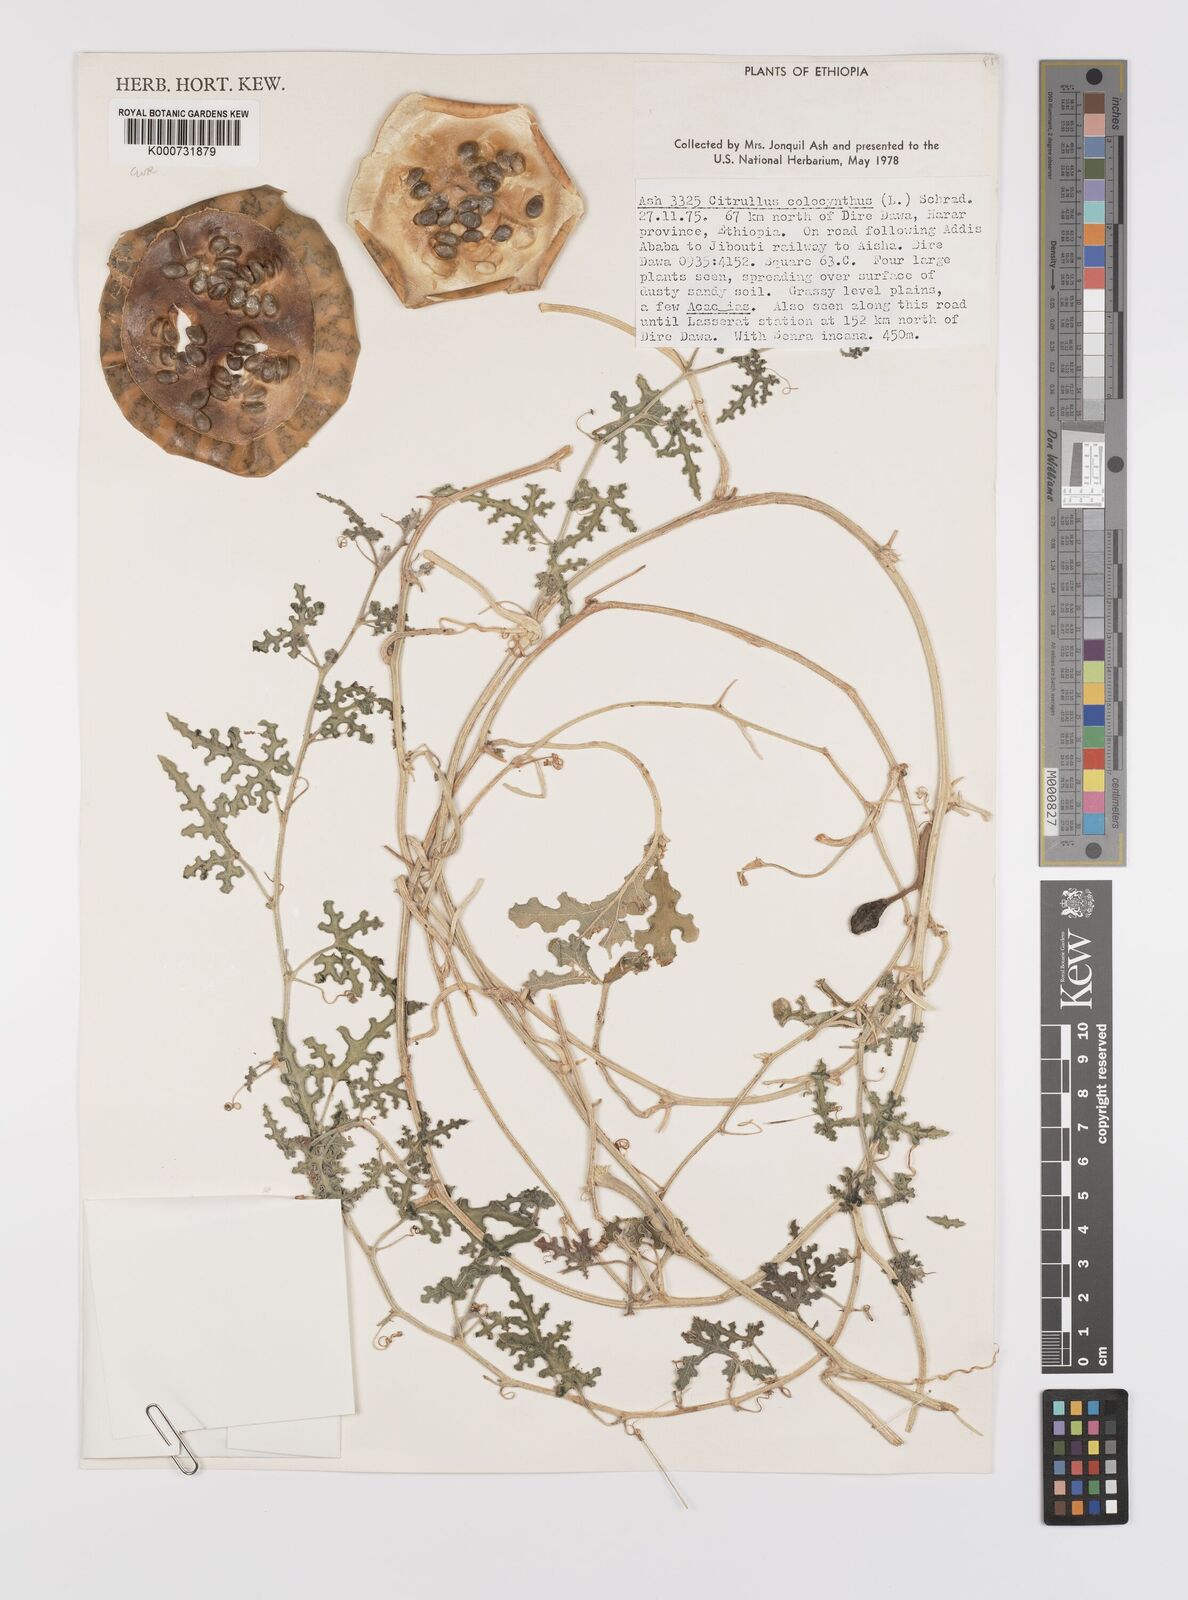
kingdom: Plantae
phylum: Tracheophyta
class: Magnoliopsida
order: Cucurbitales
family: Cucurbitaceae
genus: Citrullus
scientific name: Citrullus colocynthis
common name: Colocynth
